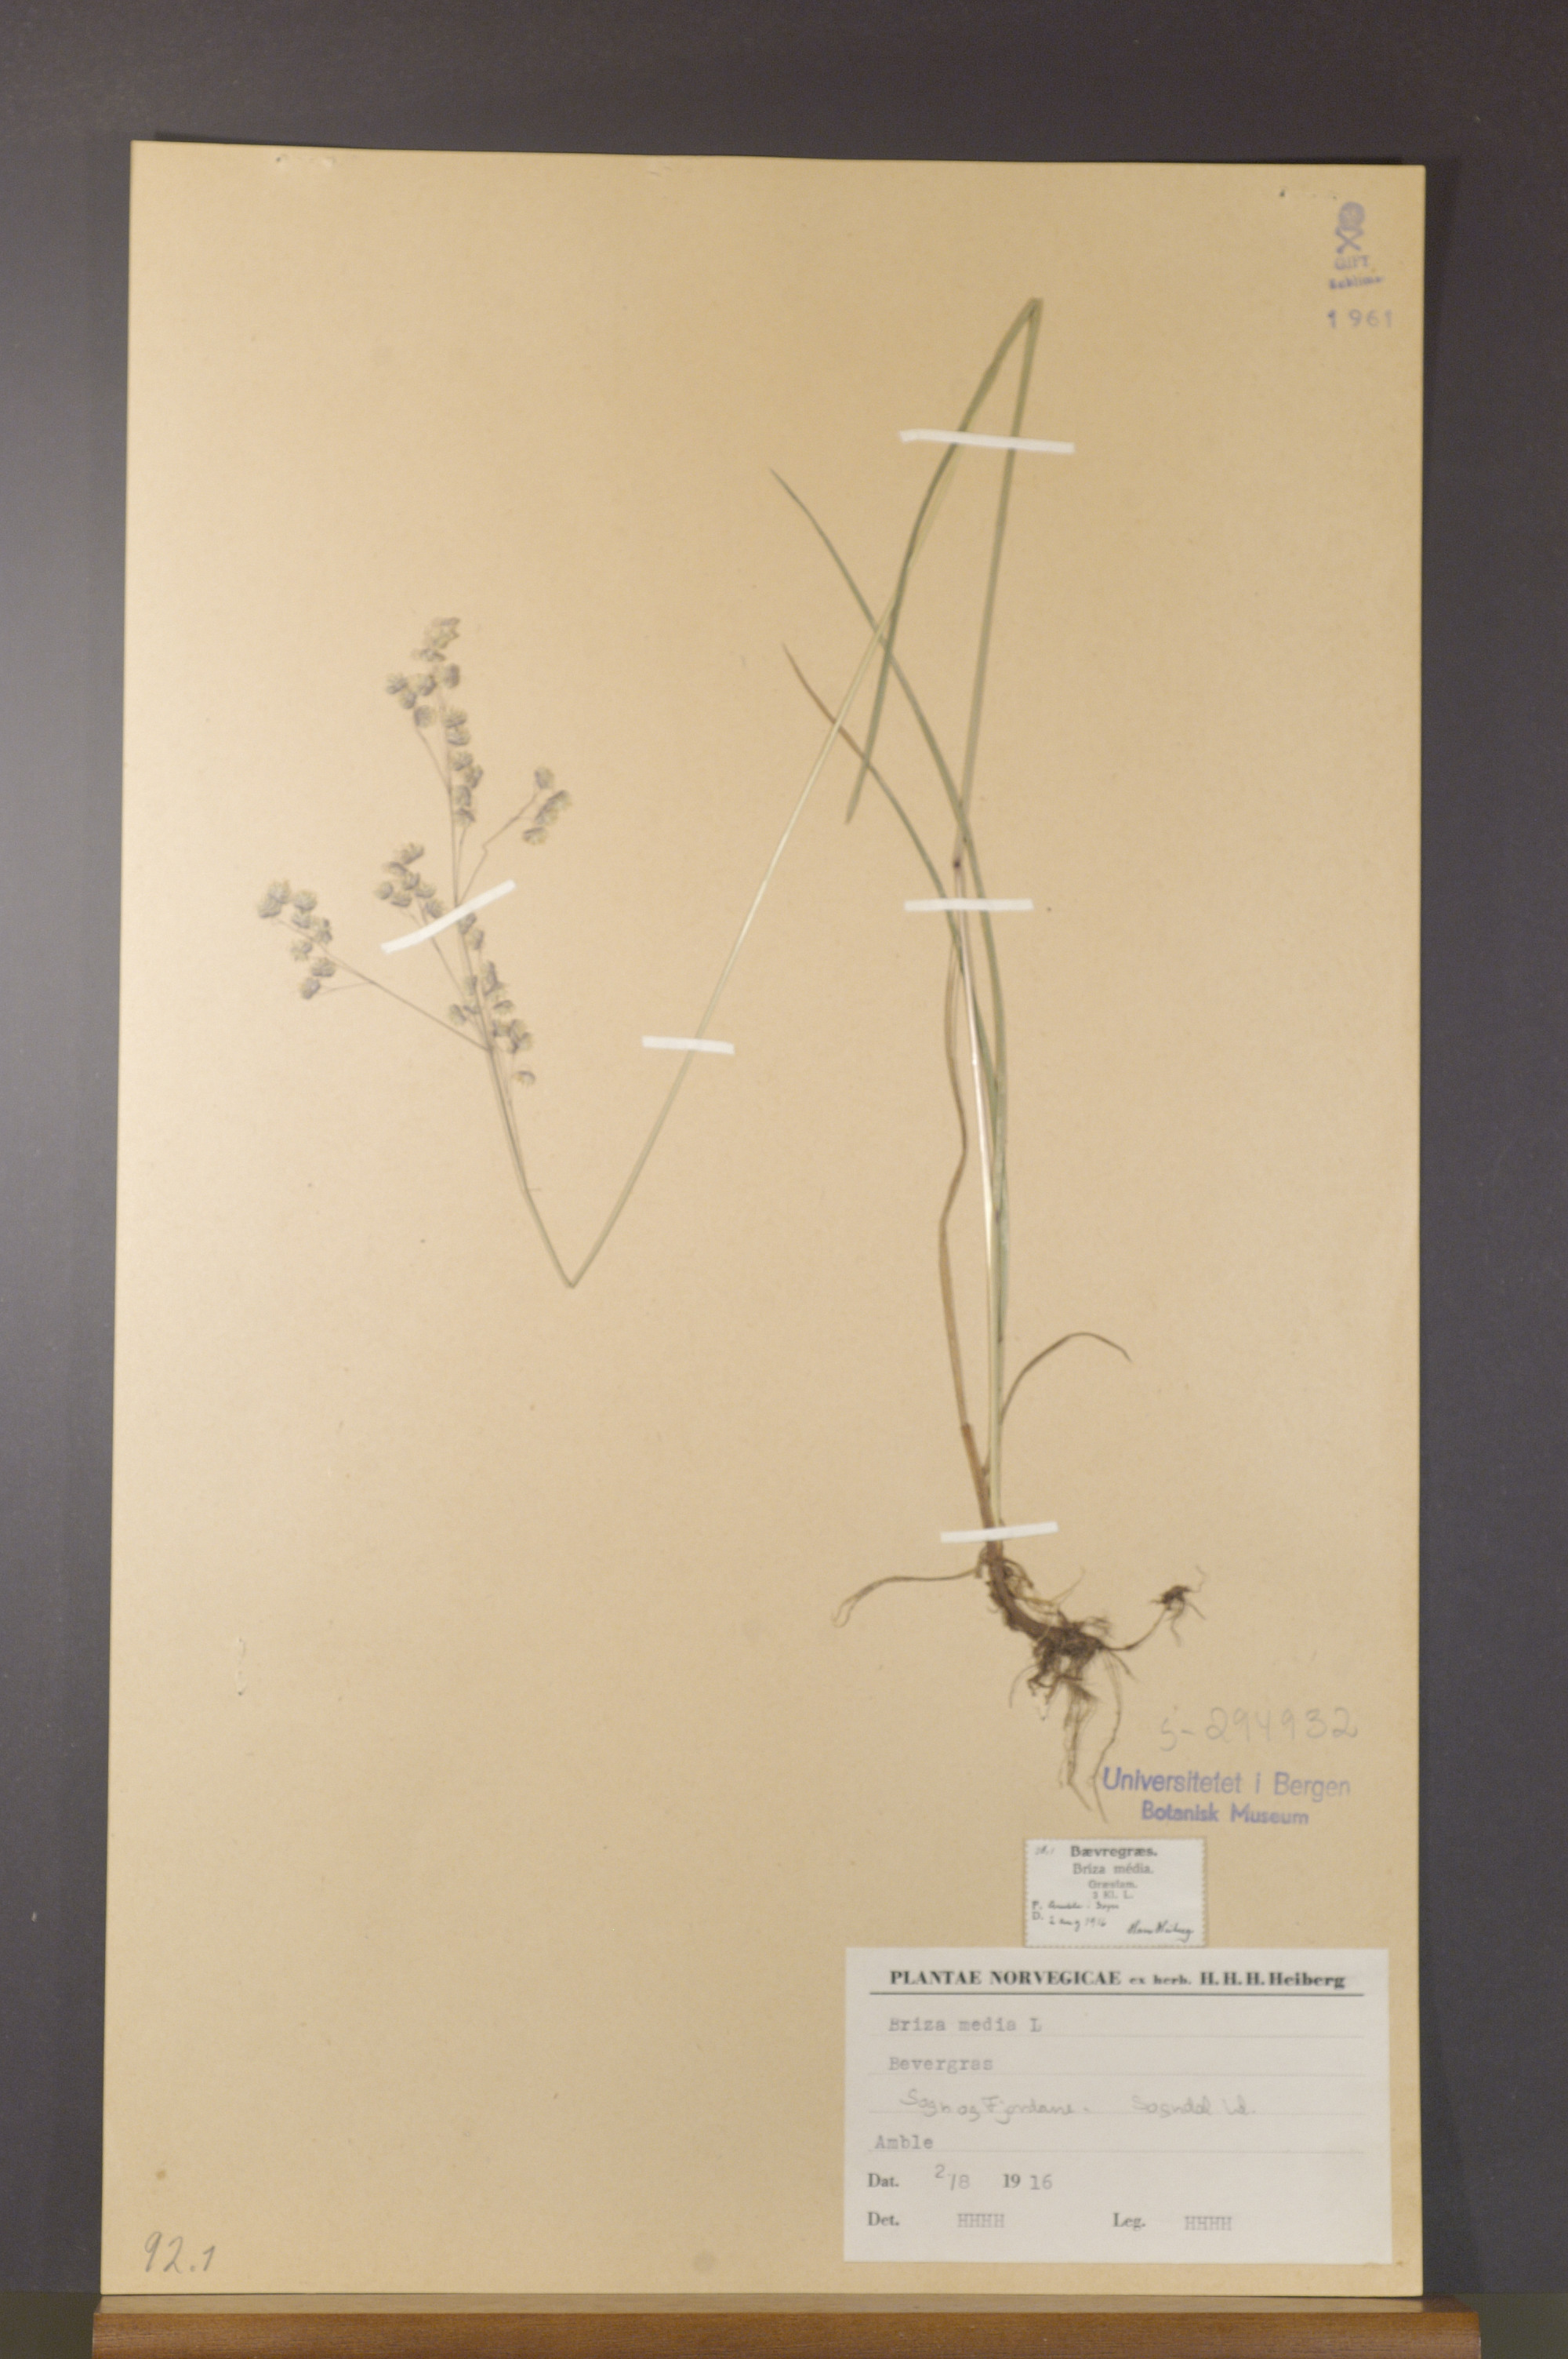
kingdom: Plantae
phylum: Tracheophyta
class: Liliopsida
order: Poales
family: Poaceae
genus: Briza
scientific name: Briza media
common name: Quaking grass
